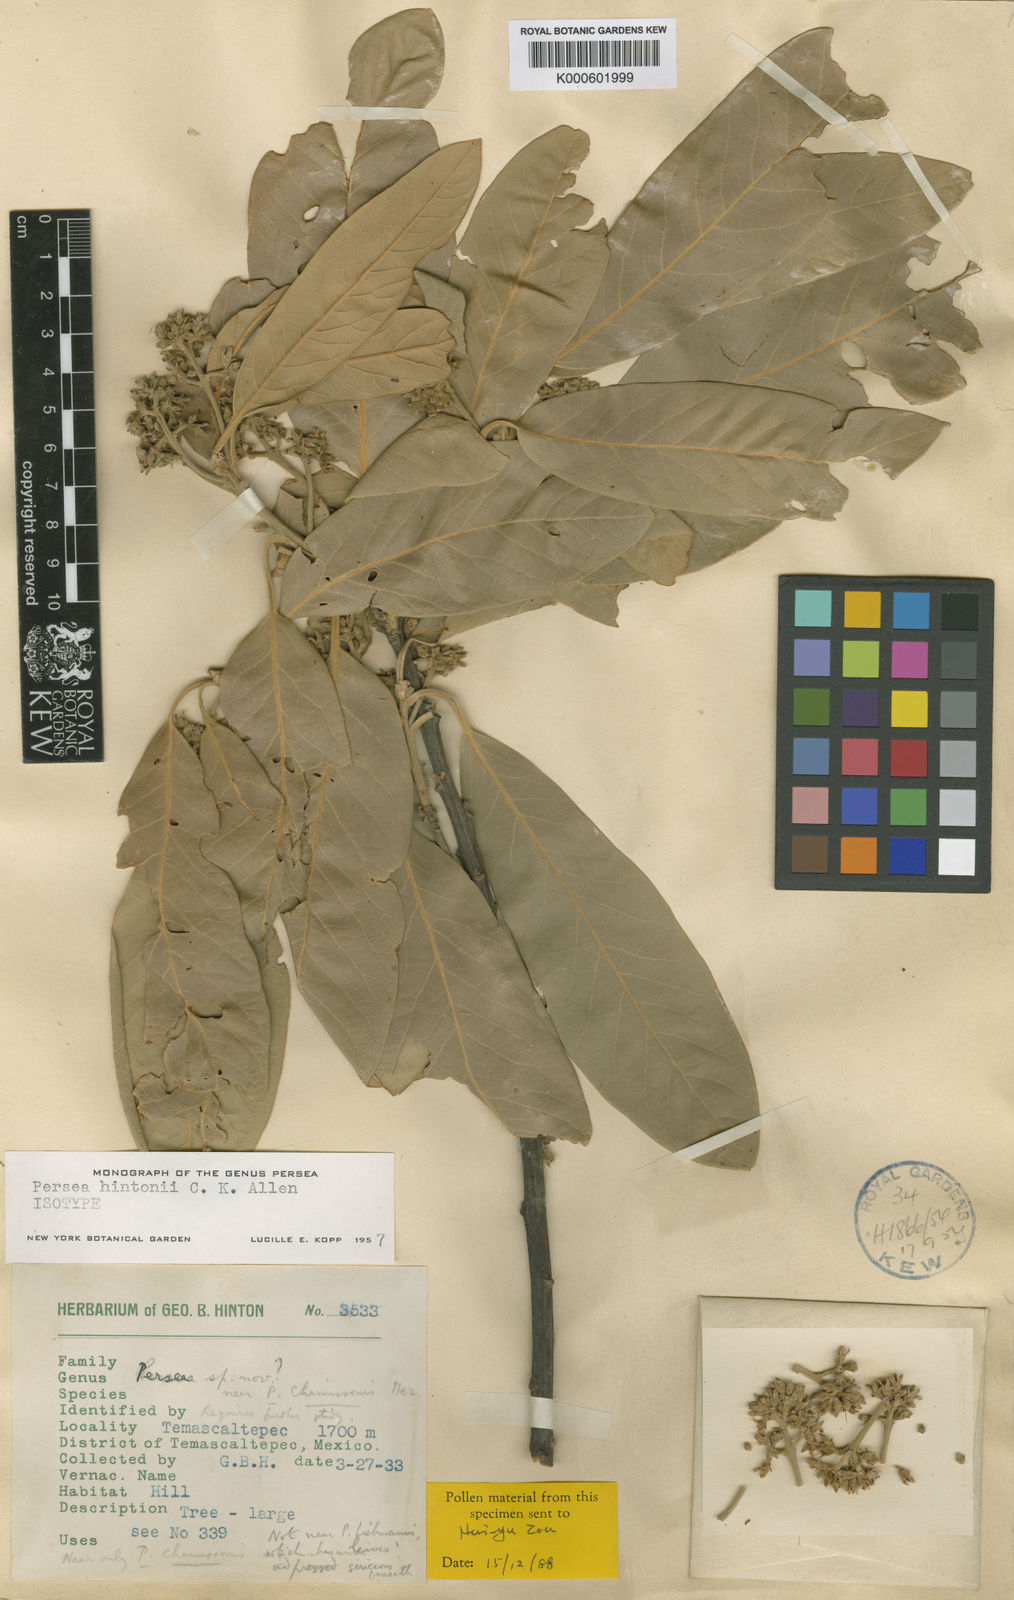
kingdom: Plantae
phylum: Tracheophyta
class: Magnoliopsida
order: Laurales
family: Lauraceae
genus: Persea
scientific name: Persea hintonii
